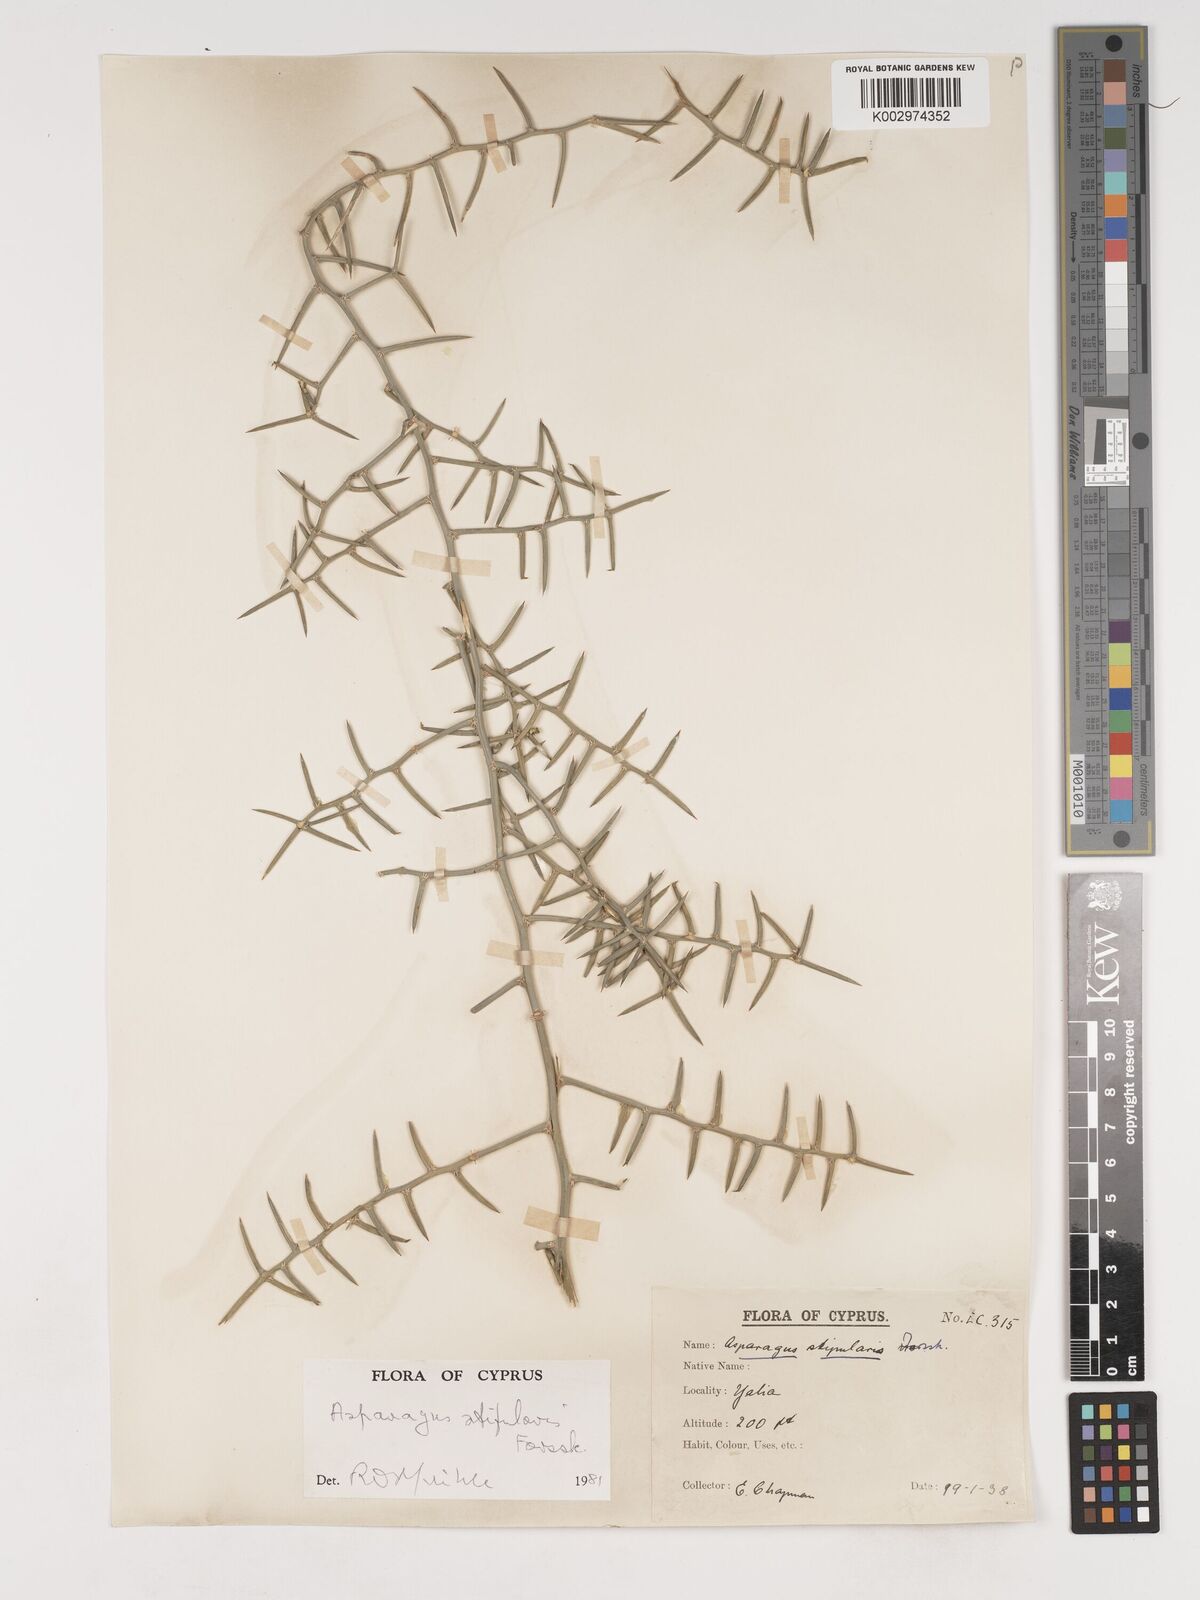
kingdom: Plantae
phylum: Tracheophyta
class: Liliopsida
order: Asparagales
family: Asparagaceae
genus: Asparagus
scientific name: Asparagus aphyllus
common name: Mediterranean asparagus
